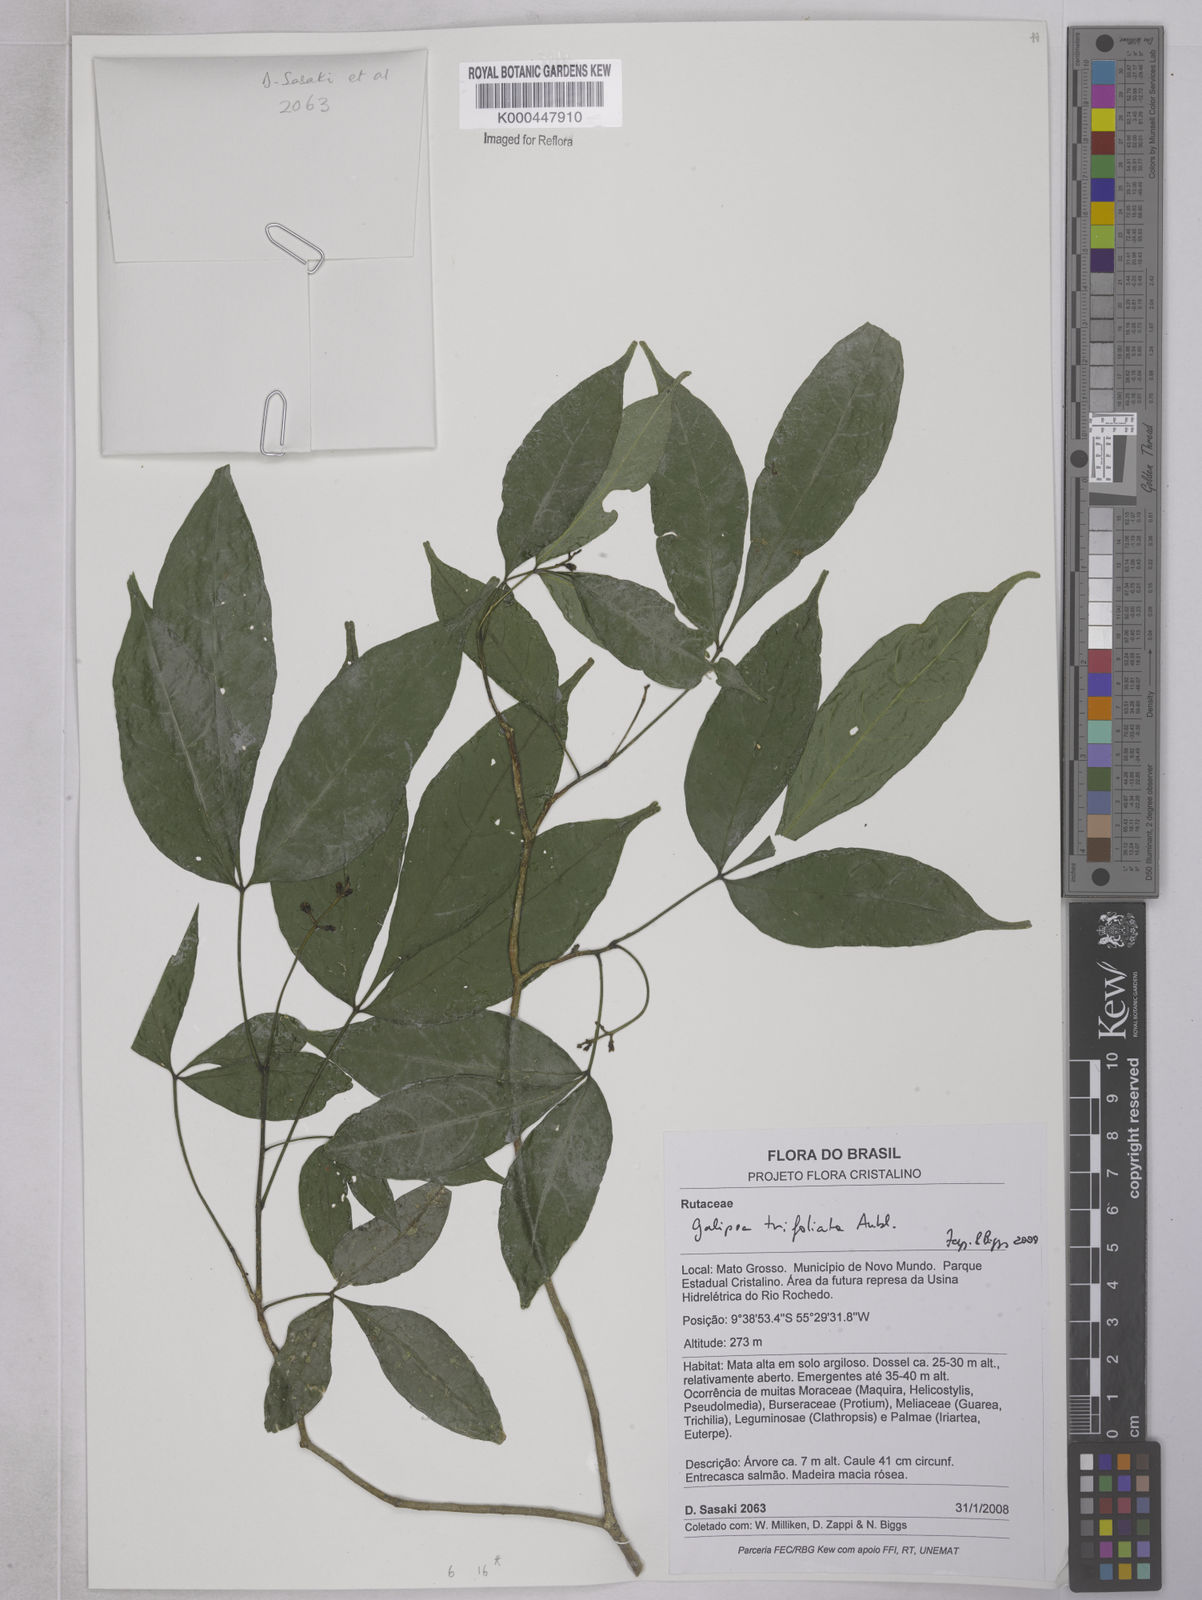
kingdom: Plantae
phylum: Tracheophyta
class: Magnoliopsida
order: Sapindales
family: Rutaceae
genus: Galipea
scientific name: Galipea trifoliata
